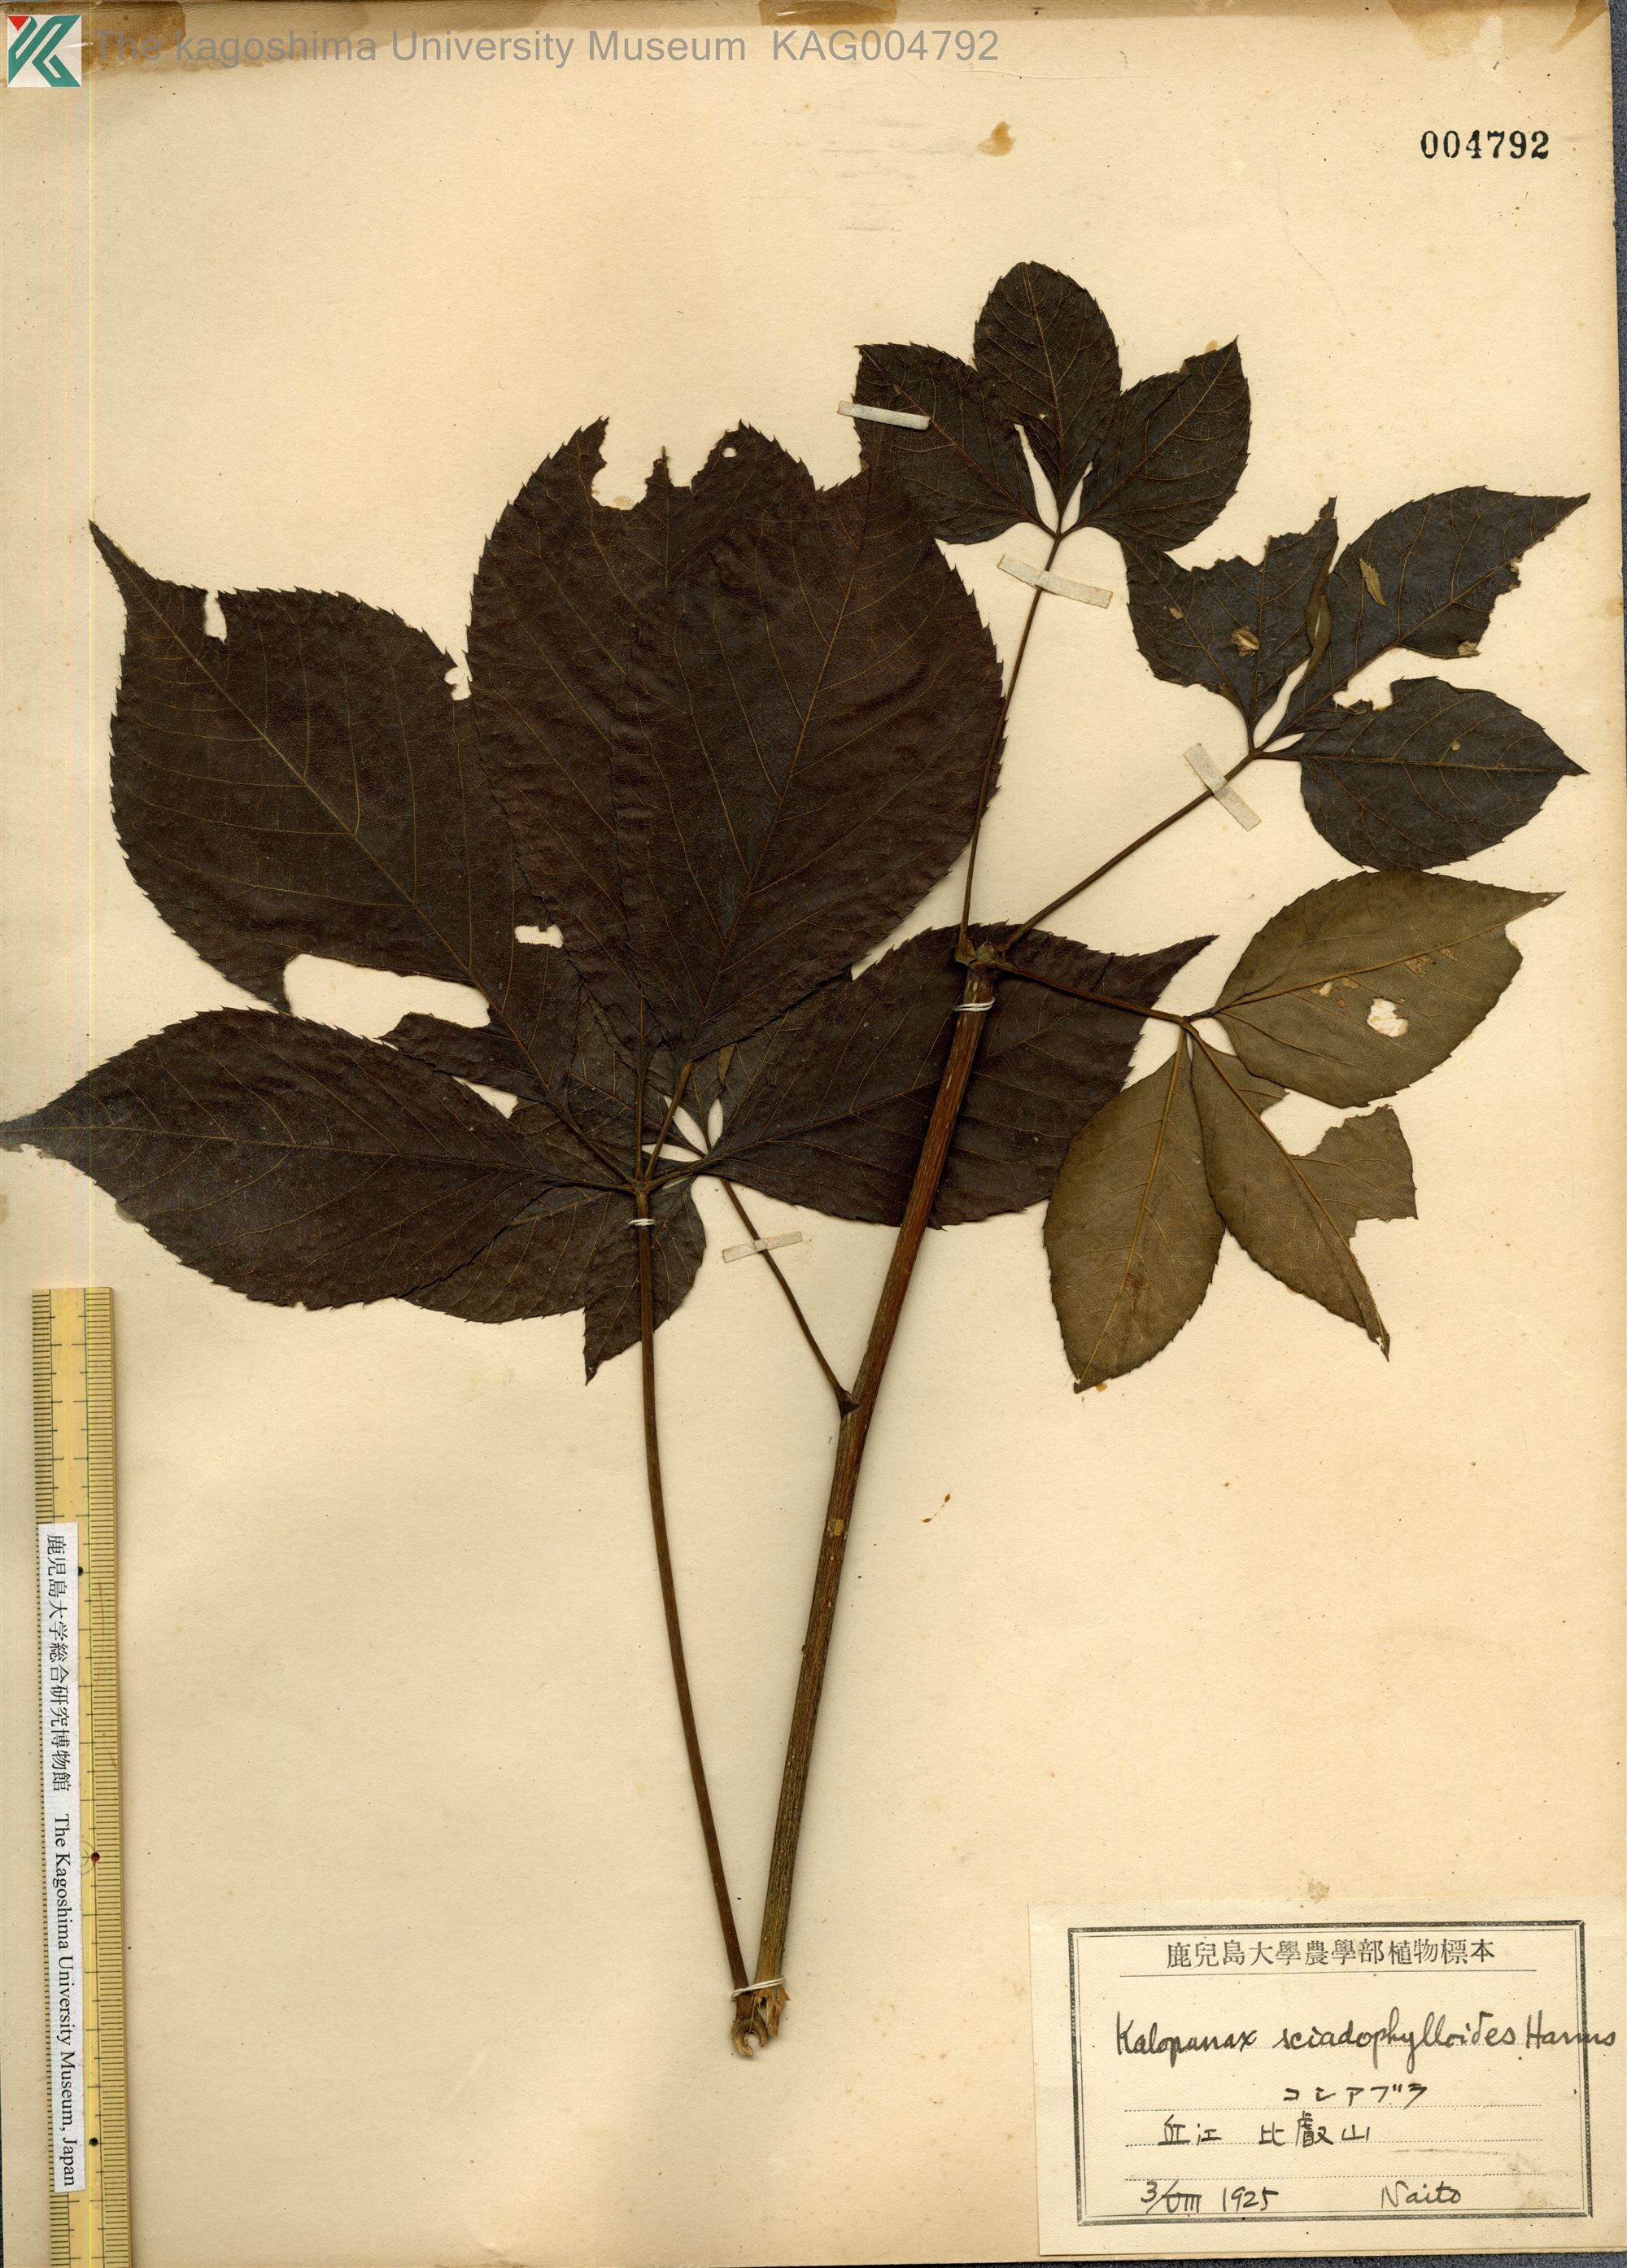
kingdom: Plantae
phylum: Tracheophyta
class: Magnoliopsida
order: Apiales
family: Araliaceae
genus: Chengiopanax
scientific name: Chengiopanax sciadophylloides
